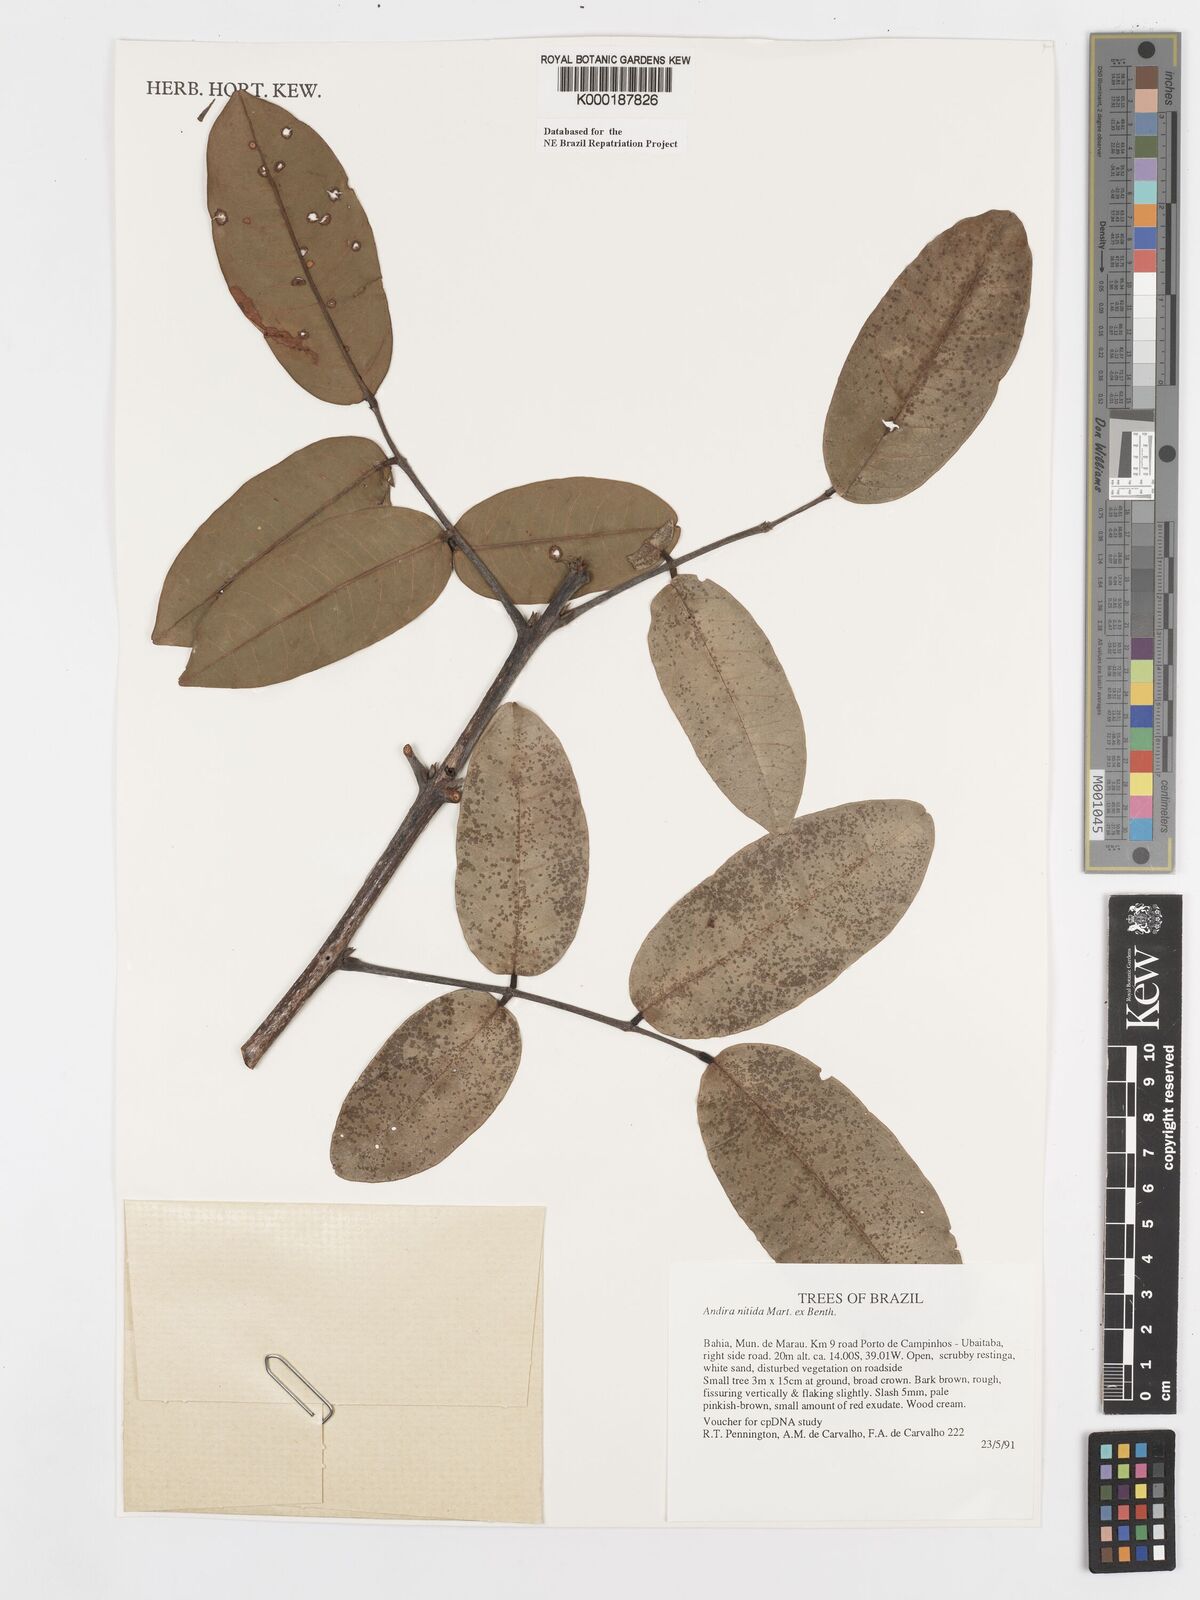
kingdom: Plantae
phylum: Tracheophyta
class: Magnoliopsida
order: Fabales
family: Fabaceae
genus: Andira
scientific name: Andira nitida
